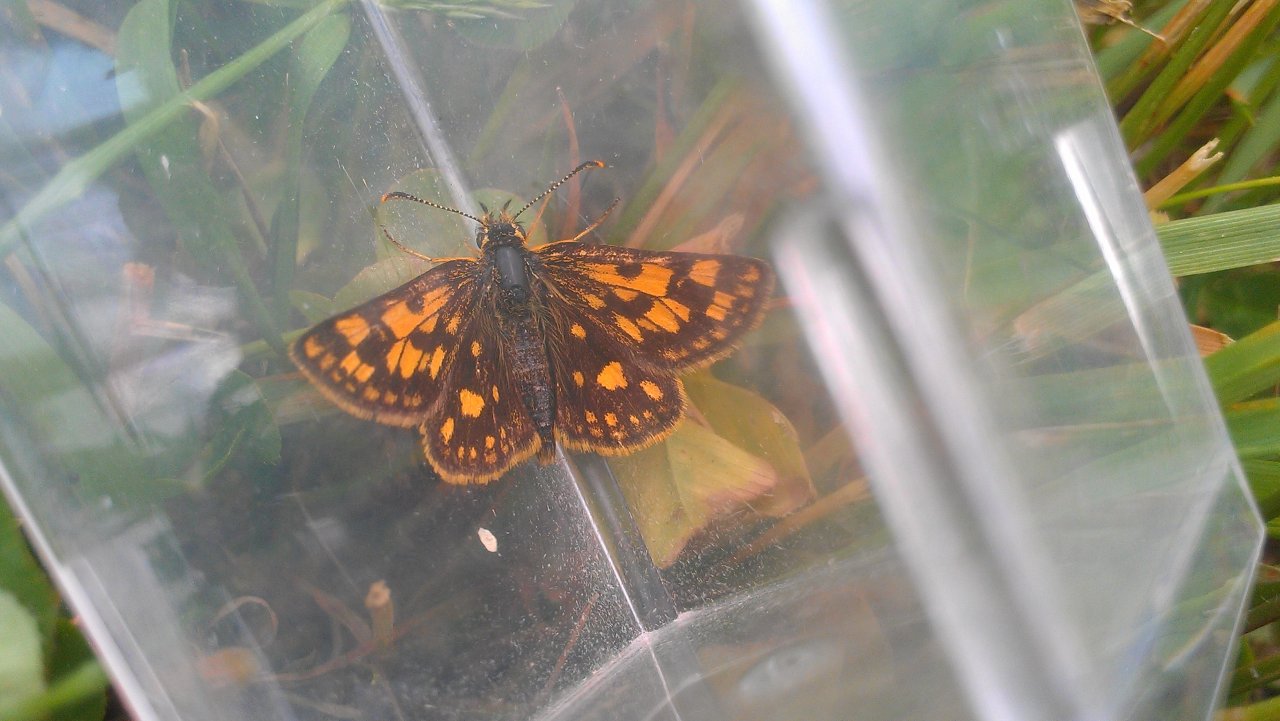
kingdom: Animalia
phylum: Arthropoda
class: Insecta
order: Lepidoptera
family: Hesperiidae
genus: Carterocephalus
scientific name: Carterocephalus palaemon
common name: Chequered Skipper
